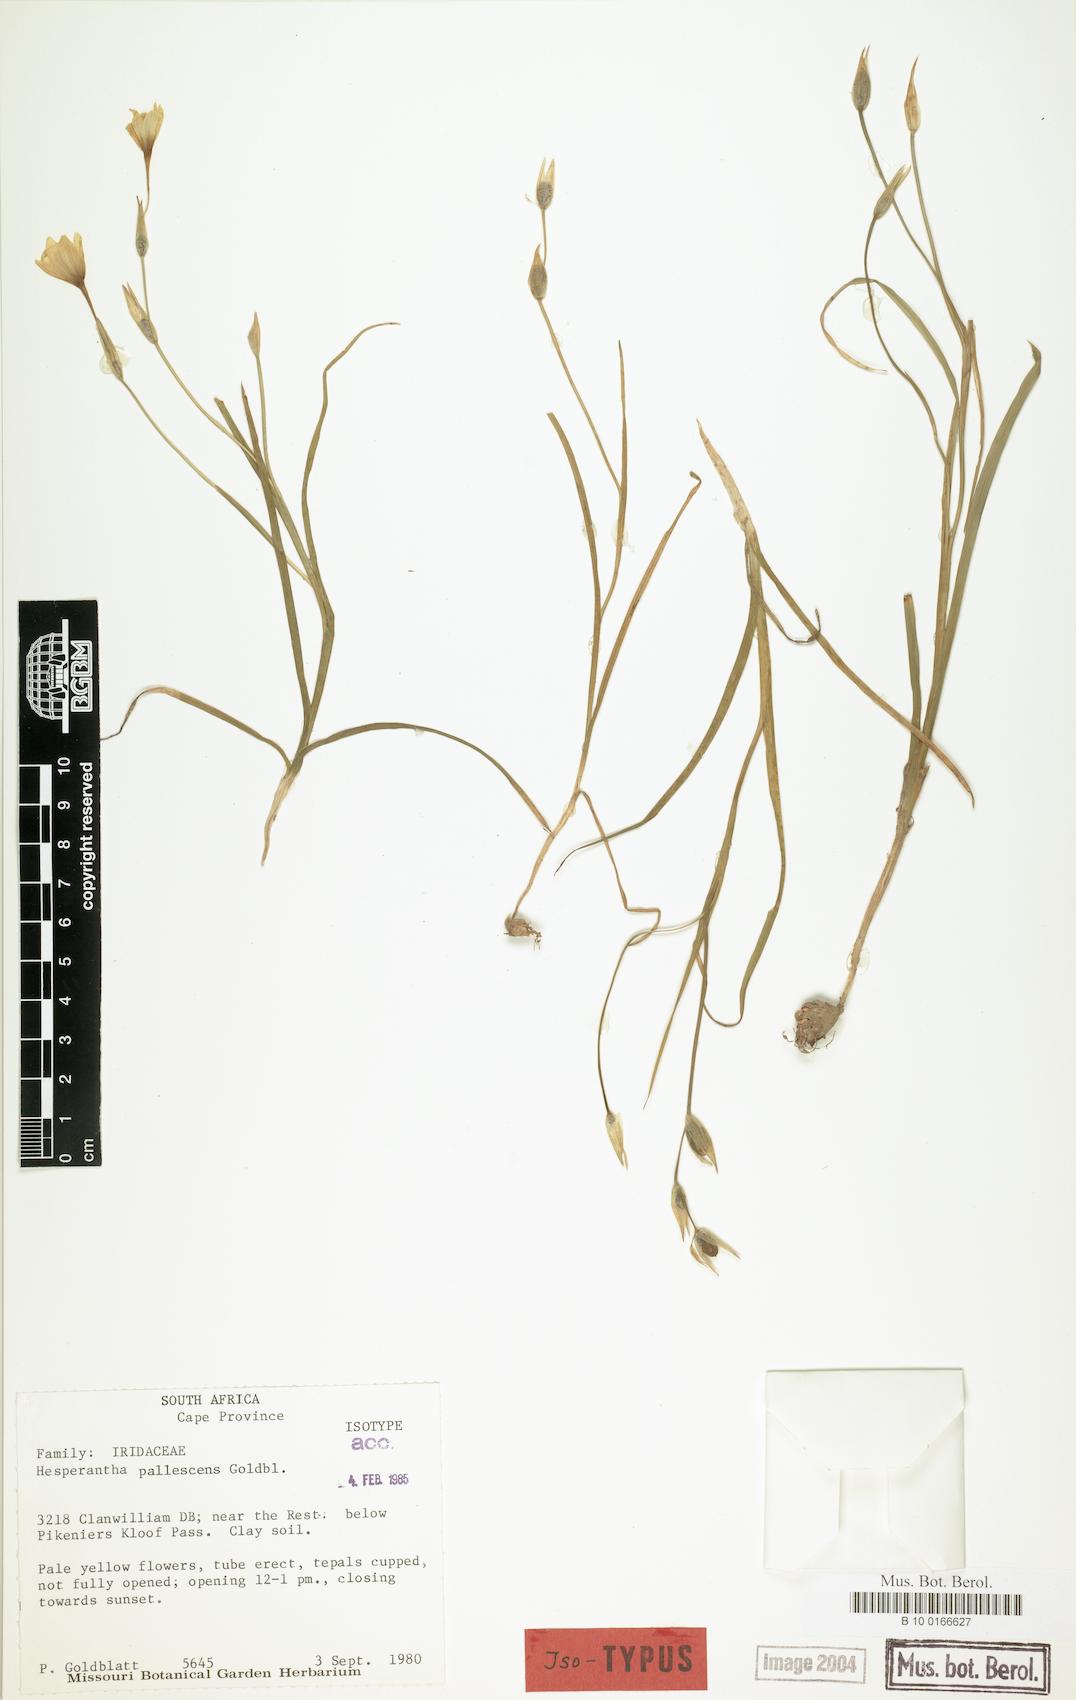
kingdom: Plantae
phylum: Tracheophyta
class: Liliopsida
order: Asparagales
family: Iridaceae
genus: Hesperantha
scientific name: Hesperantha pallescens
